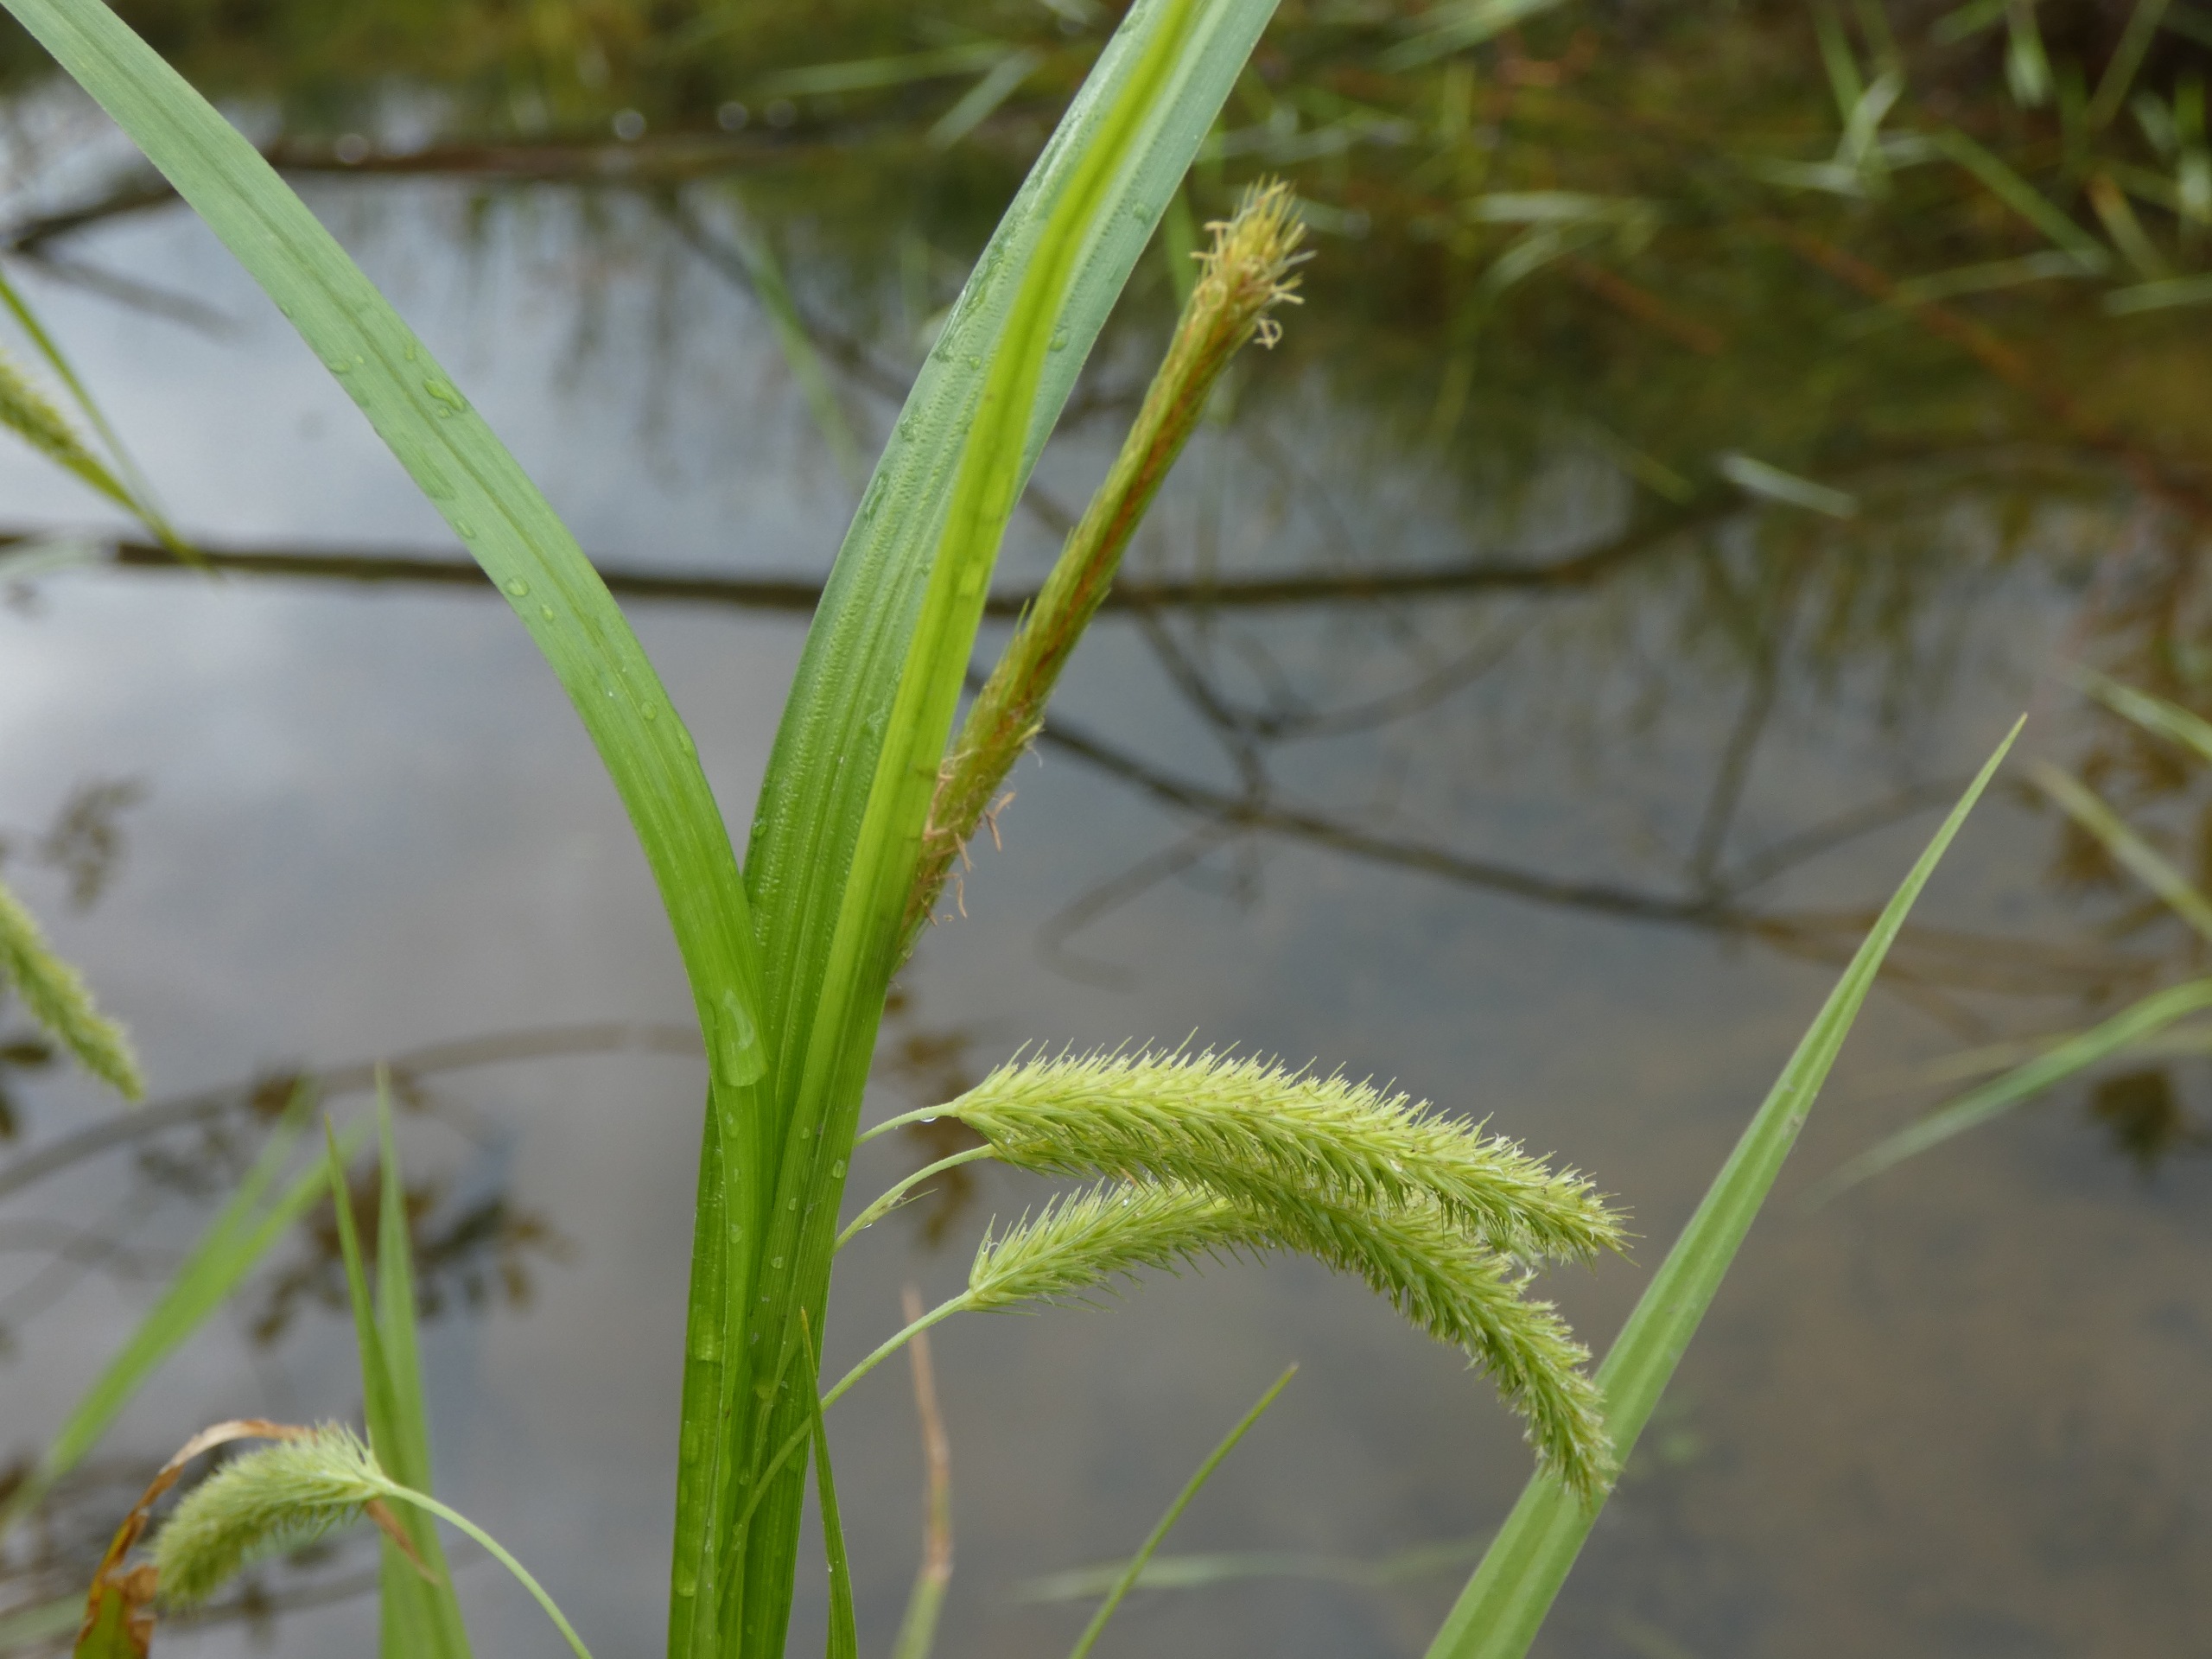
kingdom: Plantae
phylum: Tracheophyta
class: Liliopsida
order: Poales
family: Cyperaceae
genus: Carex
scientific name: Carex pseudocyperus
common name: Knippe-star
